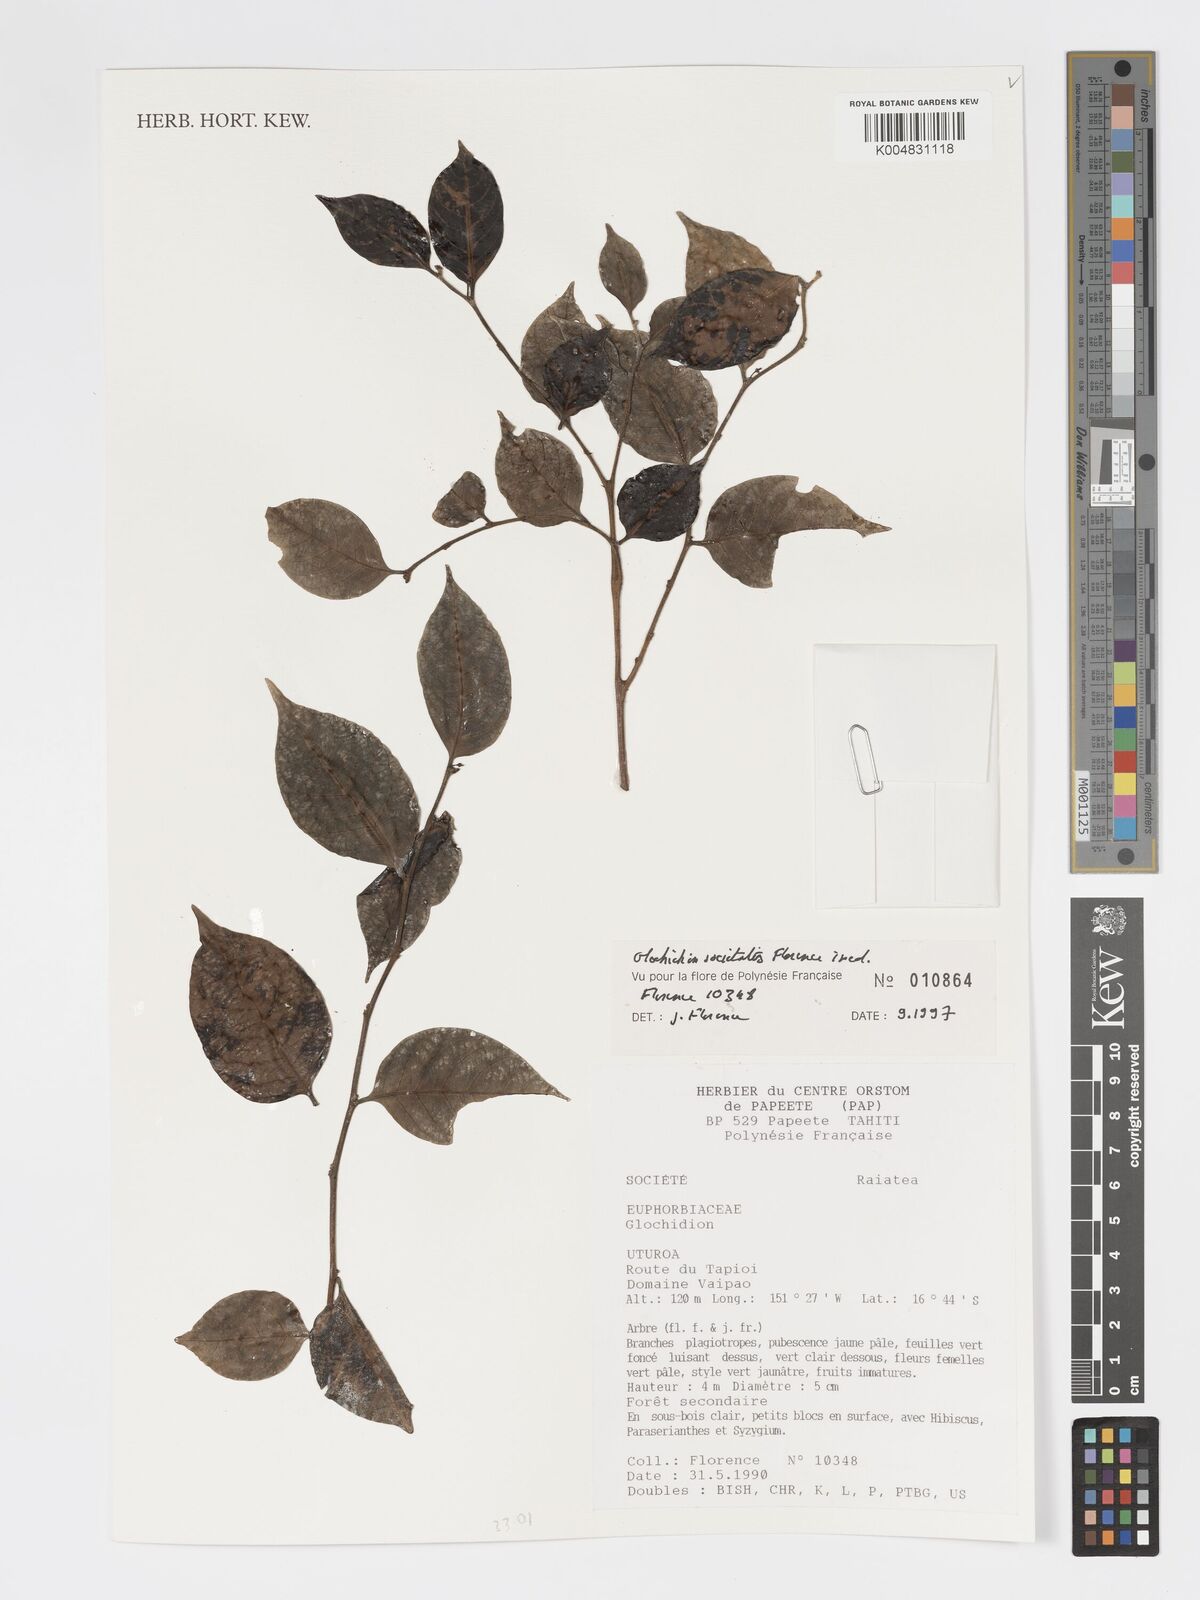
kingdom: Plantae
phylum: Tracheophyta
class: Magnoliopsida
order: Malpighiales
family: Phyllanthaceae
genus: Glochidion
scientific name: Glochidion societatis
